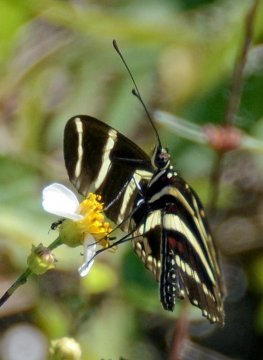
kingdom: Animalia
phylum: Arthropoda
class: Insecta
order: Lepidoptera
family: Nymphalidae
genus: Heliconius
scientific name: Heliconius charithonia
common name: Zebra Longwing
